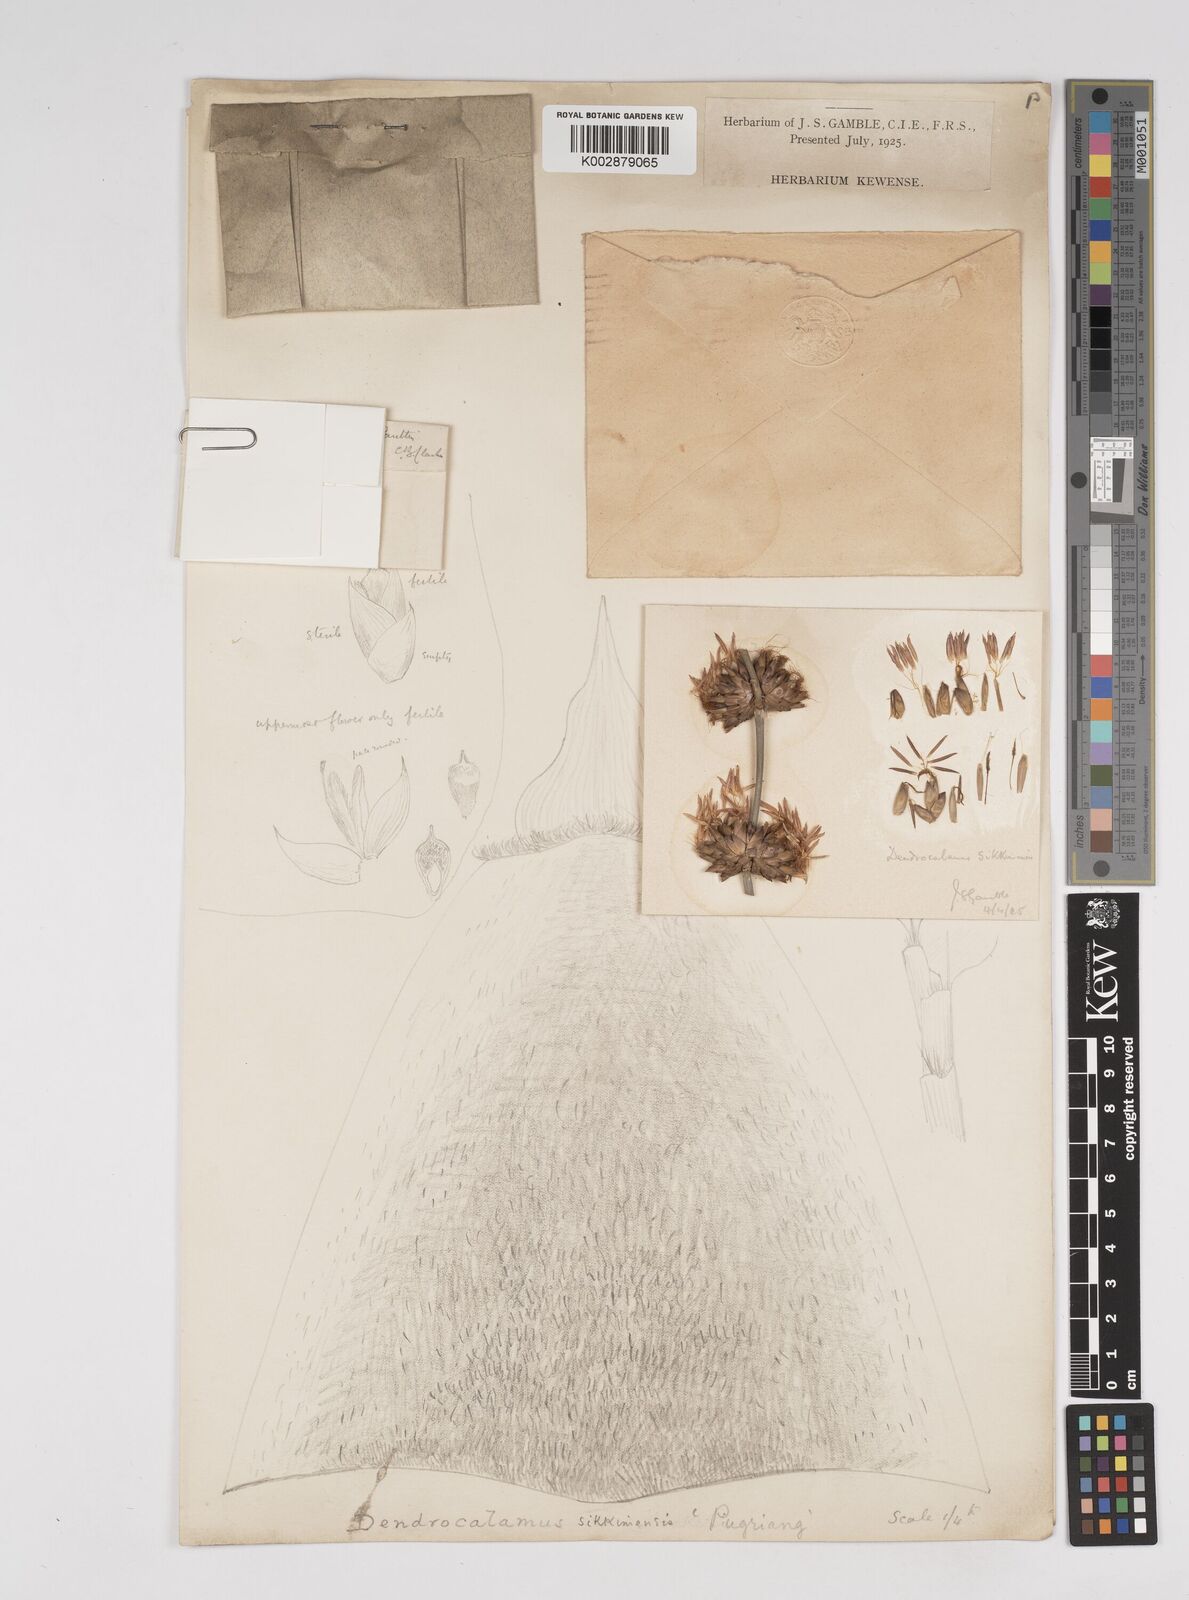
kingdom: Plantae
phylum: Tracheophyta
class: Liliopsida
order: Poales
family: Poaceae
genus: Dendrocalamus
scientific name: Dendrocalamus sikkimensis
